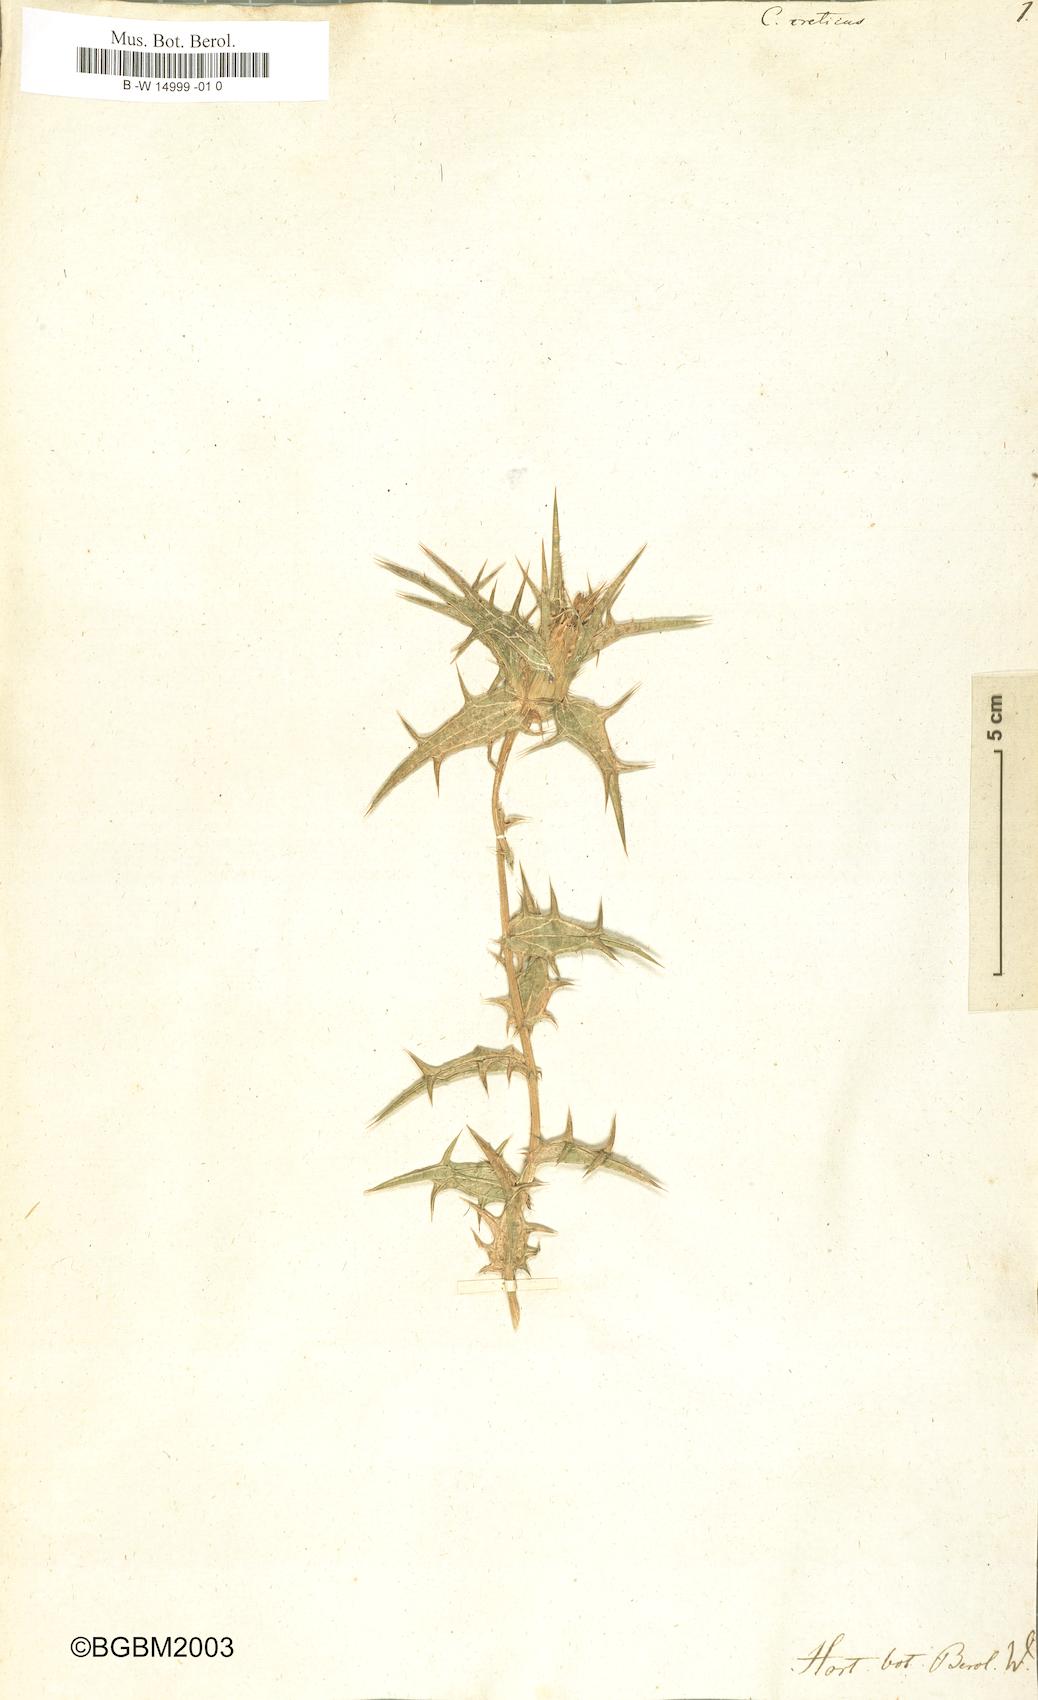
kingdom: Plantae
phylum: Tracheophyta
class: Magnoliopsida
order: Asterales
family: Asteraceae
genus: Carthamus
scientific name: Carthamus creticus
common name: Smooth distaff thistle
